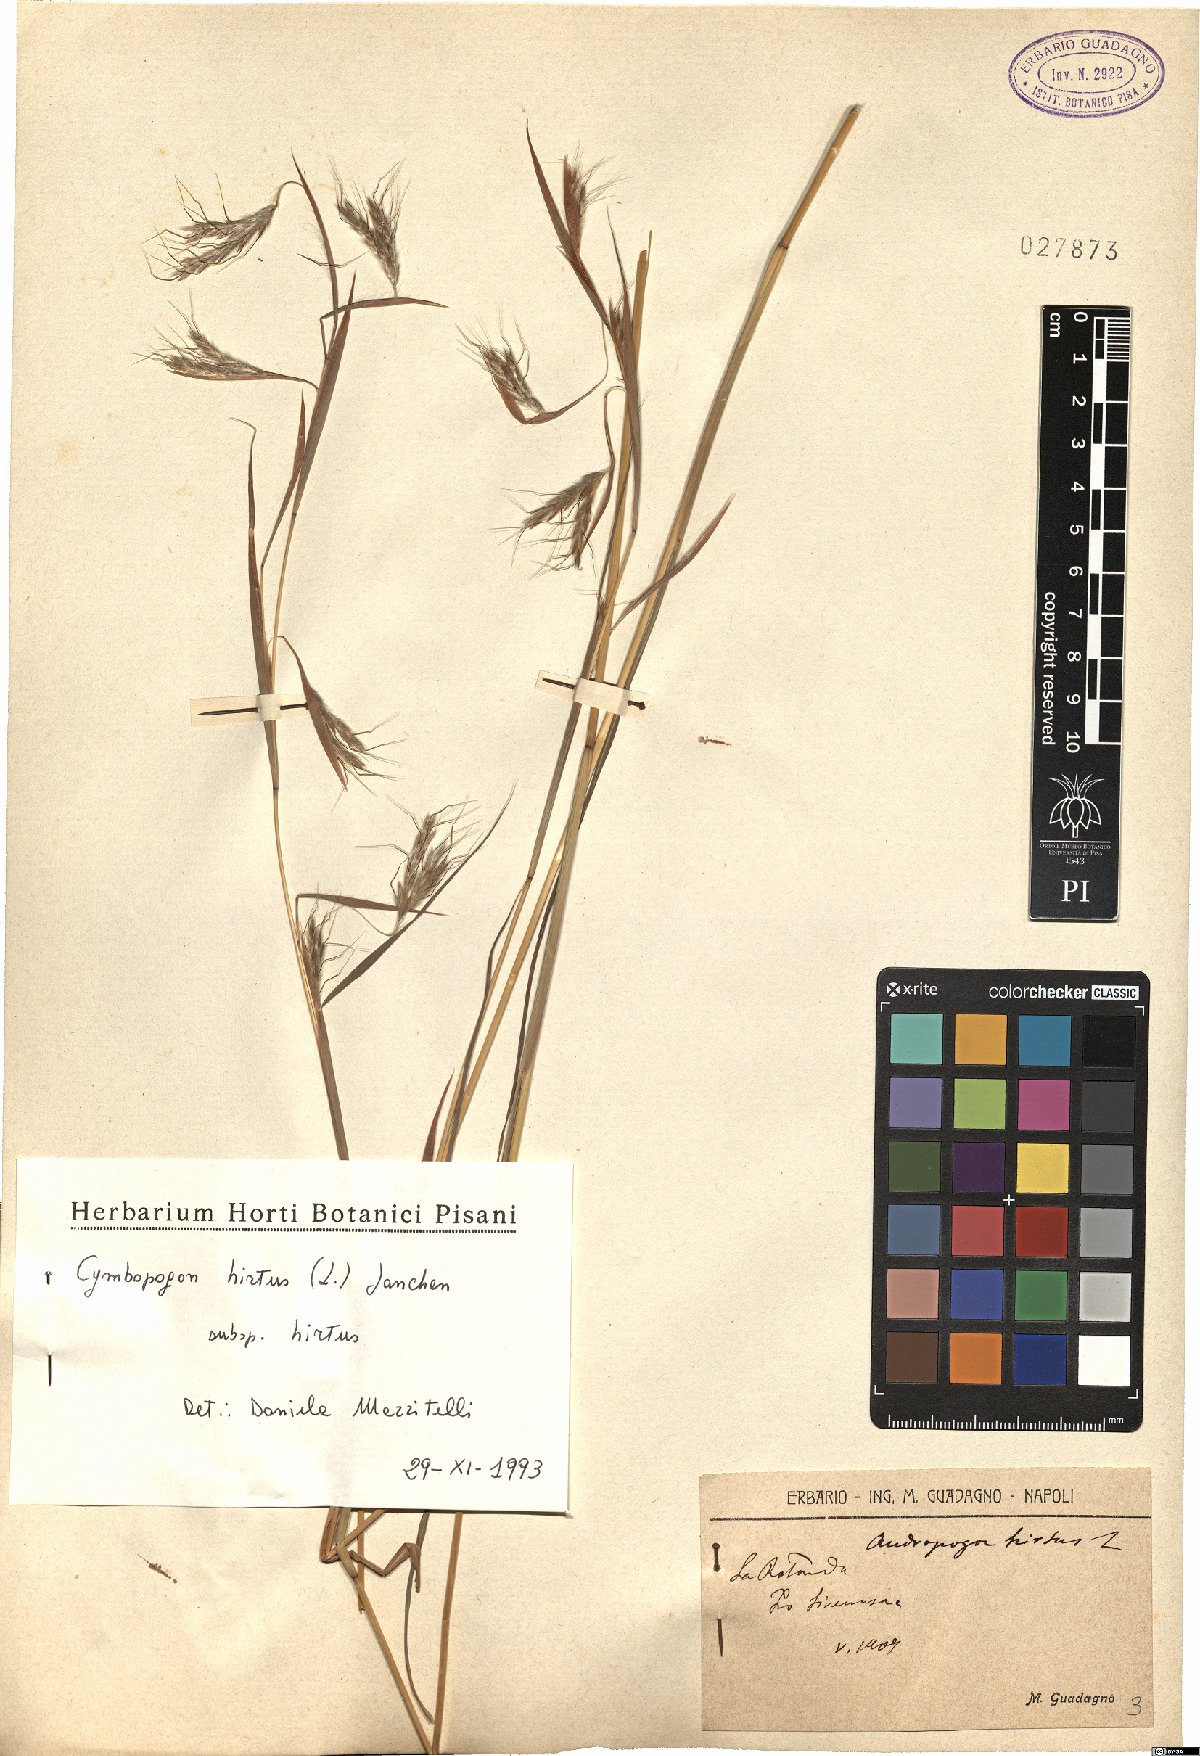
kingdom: Plantae
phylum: Tracheophyta
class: Liliopsida
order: Poales
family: Poaceae
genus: Cymbopogon
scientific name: Cymbopogon hirtus
